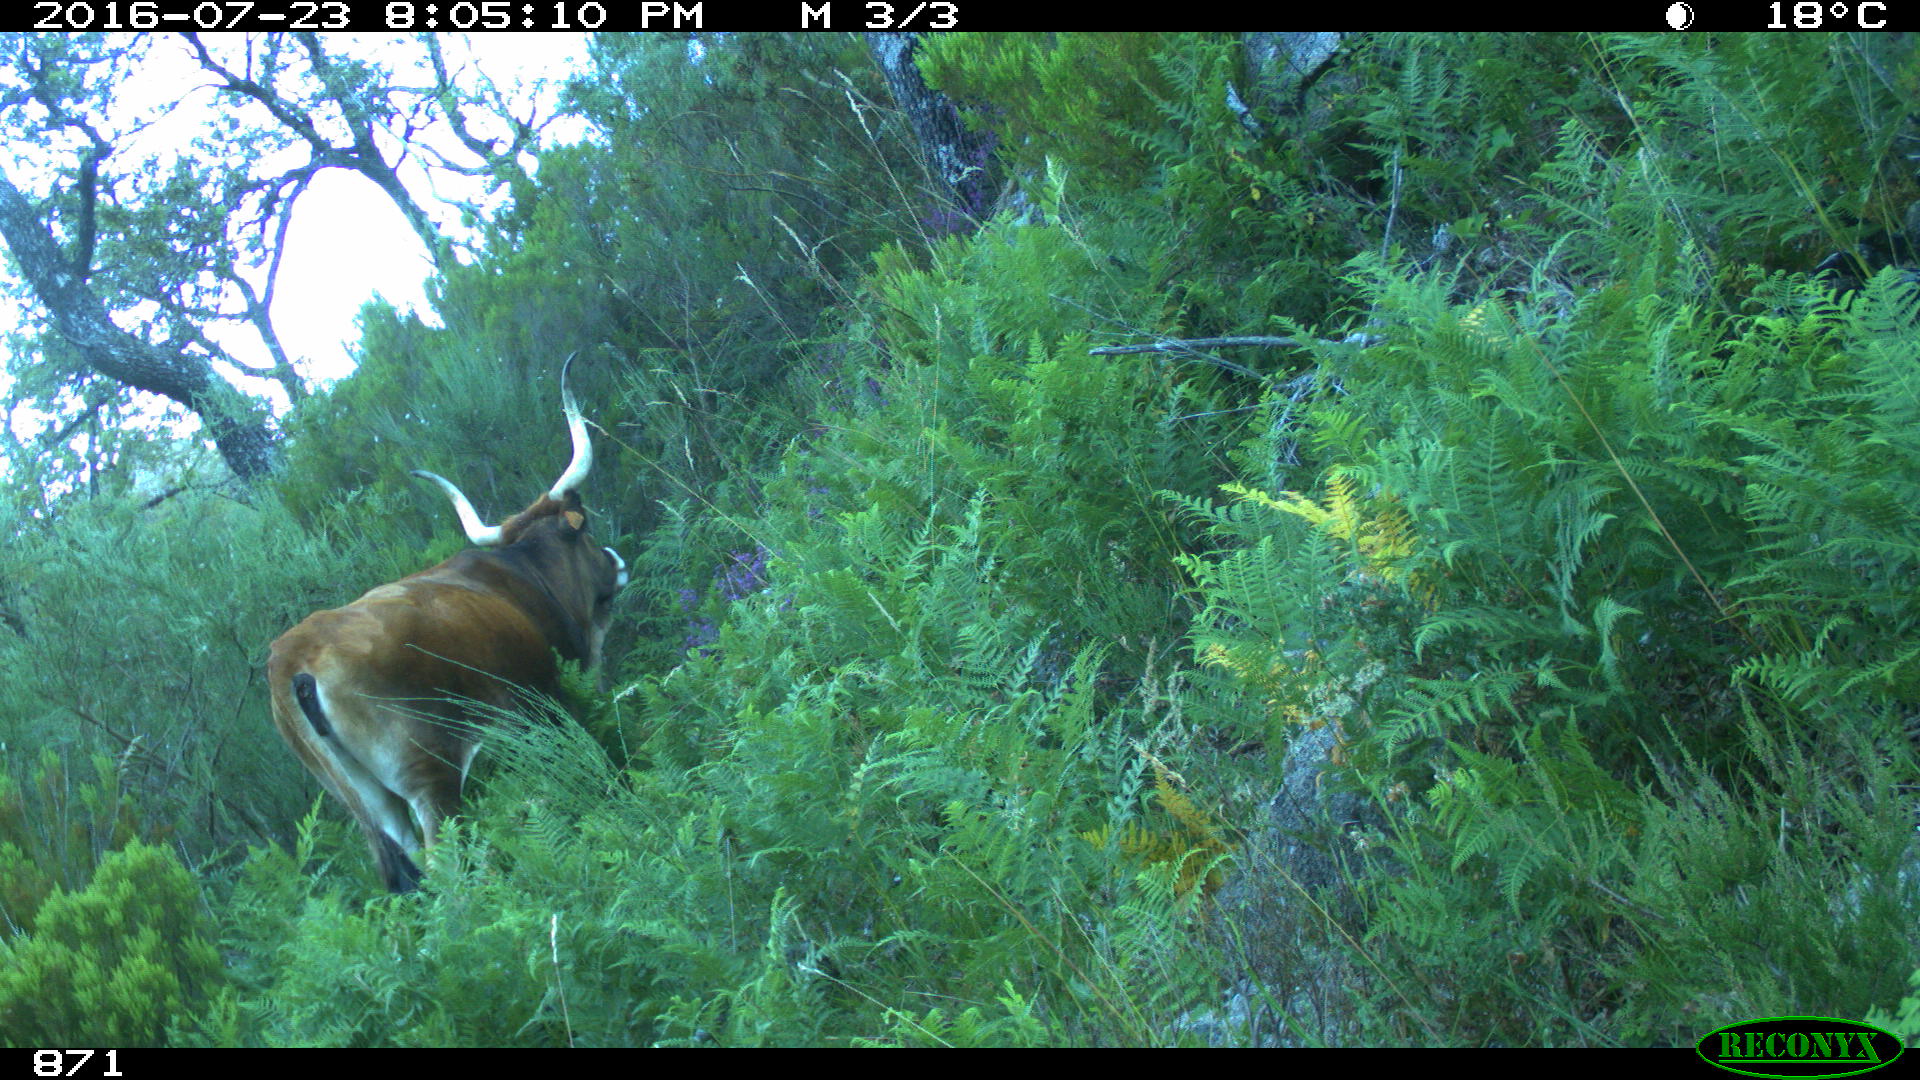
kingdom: Animalia
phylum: Chordata
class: Mammalia
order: Artiodactyla
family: Bovidae
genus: Bos
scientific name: Bos taurus
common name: Domesticated cattle
